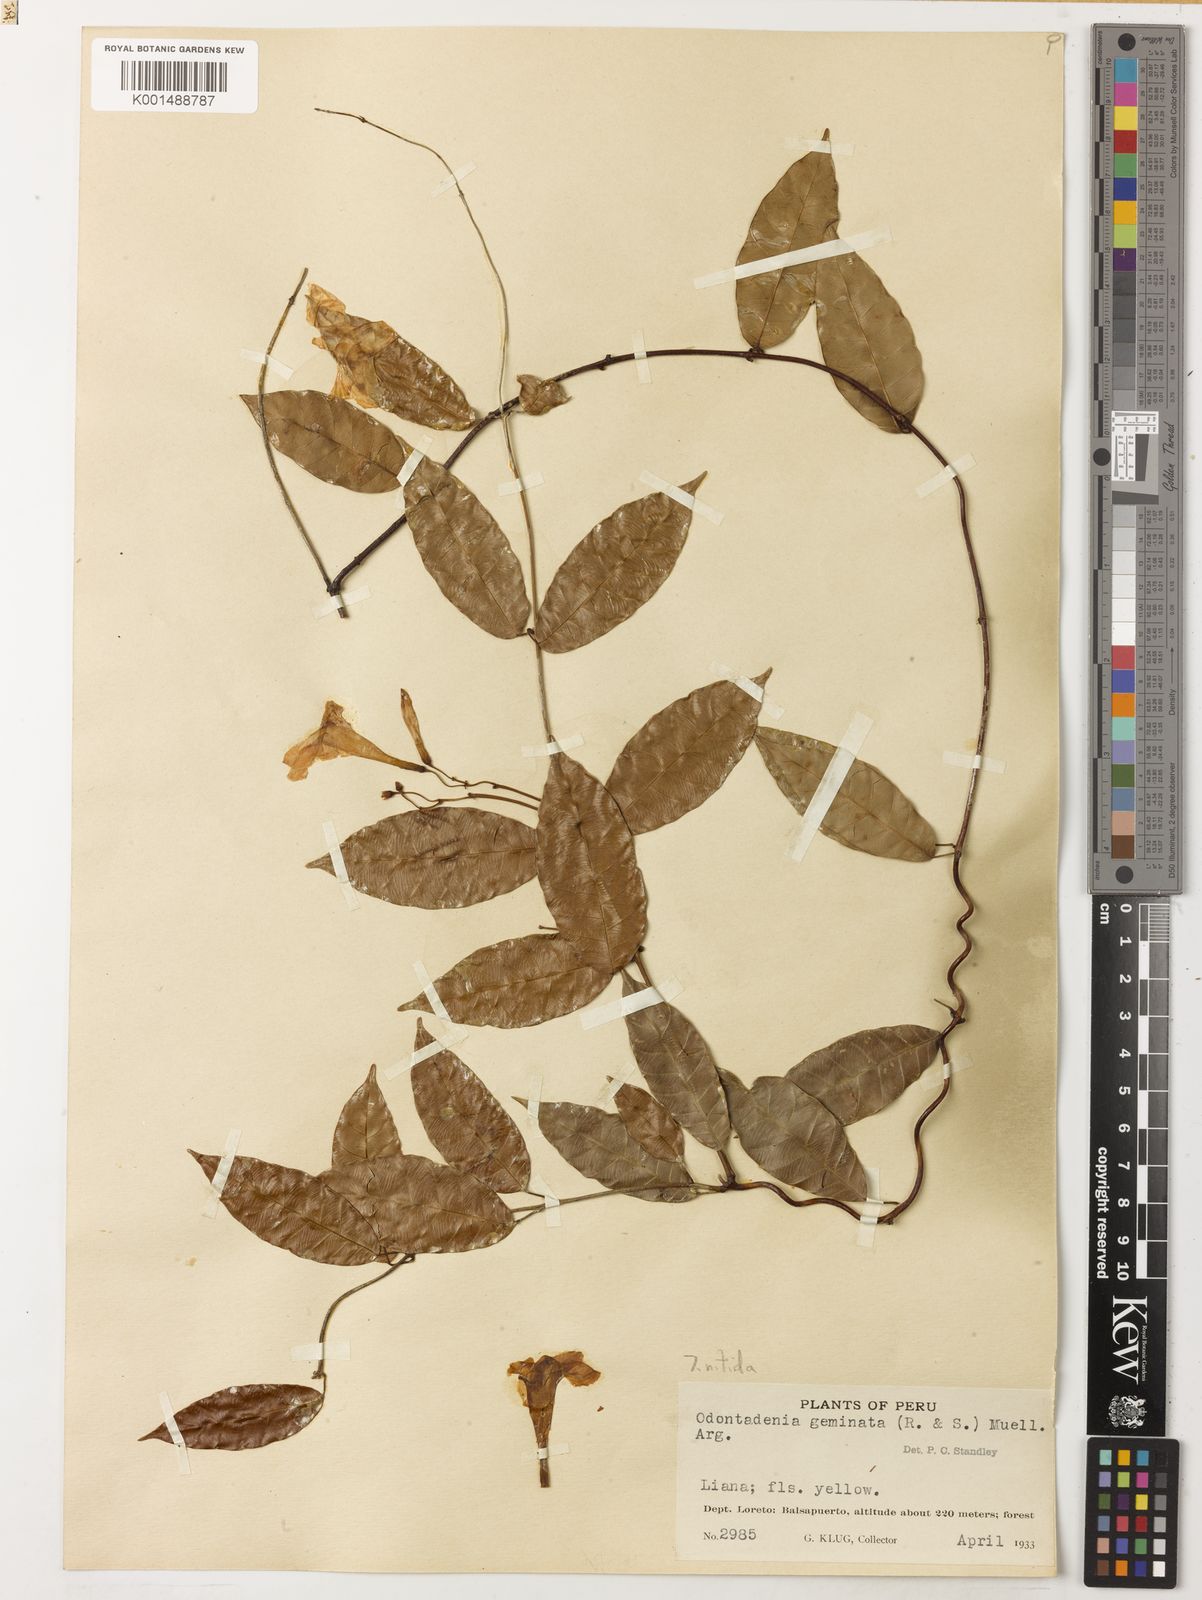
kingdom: Plantae
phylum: Tracheophyta
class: Magnoliopsida
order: Gentianales
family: Apocynaceae
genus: Odontadenia
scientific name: Odontadenia nitida
